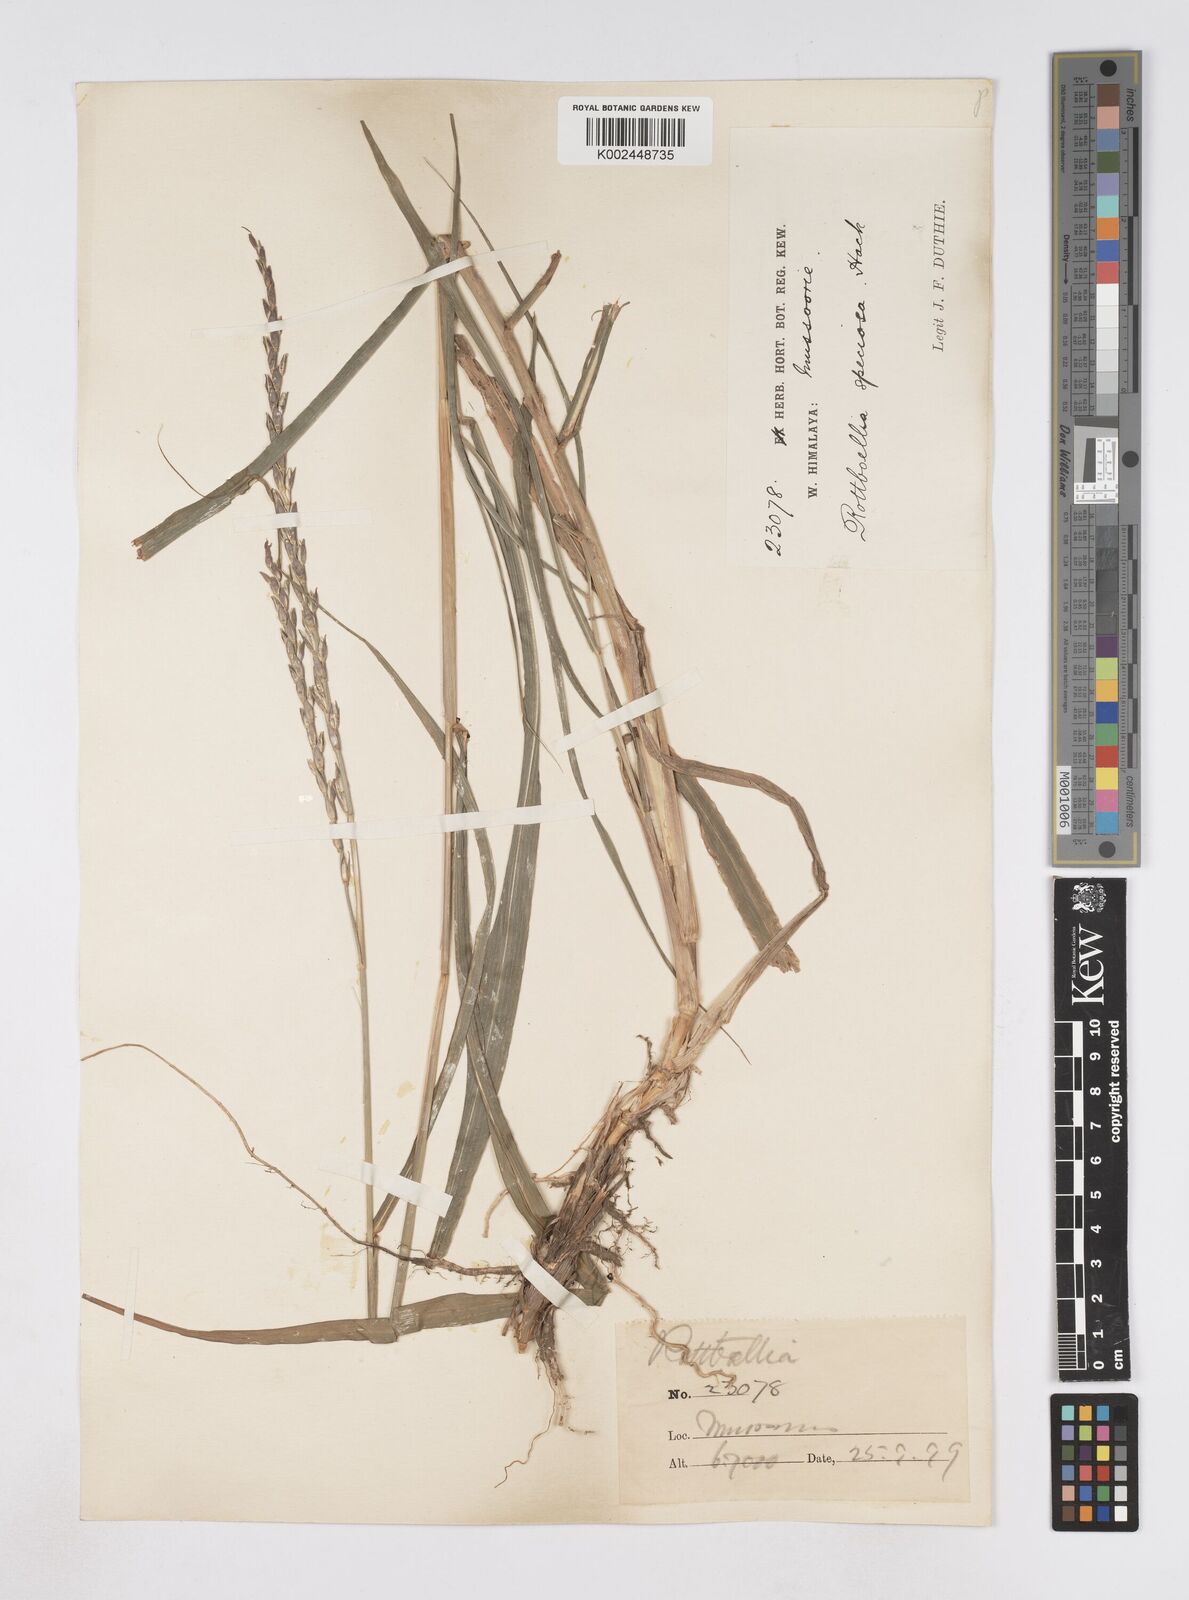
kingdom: Plantae
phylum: Tracheophyta
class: Liliopsida
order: Poales
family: Poaceae
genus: Phacelurus
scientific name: Phacelurus speciosus
